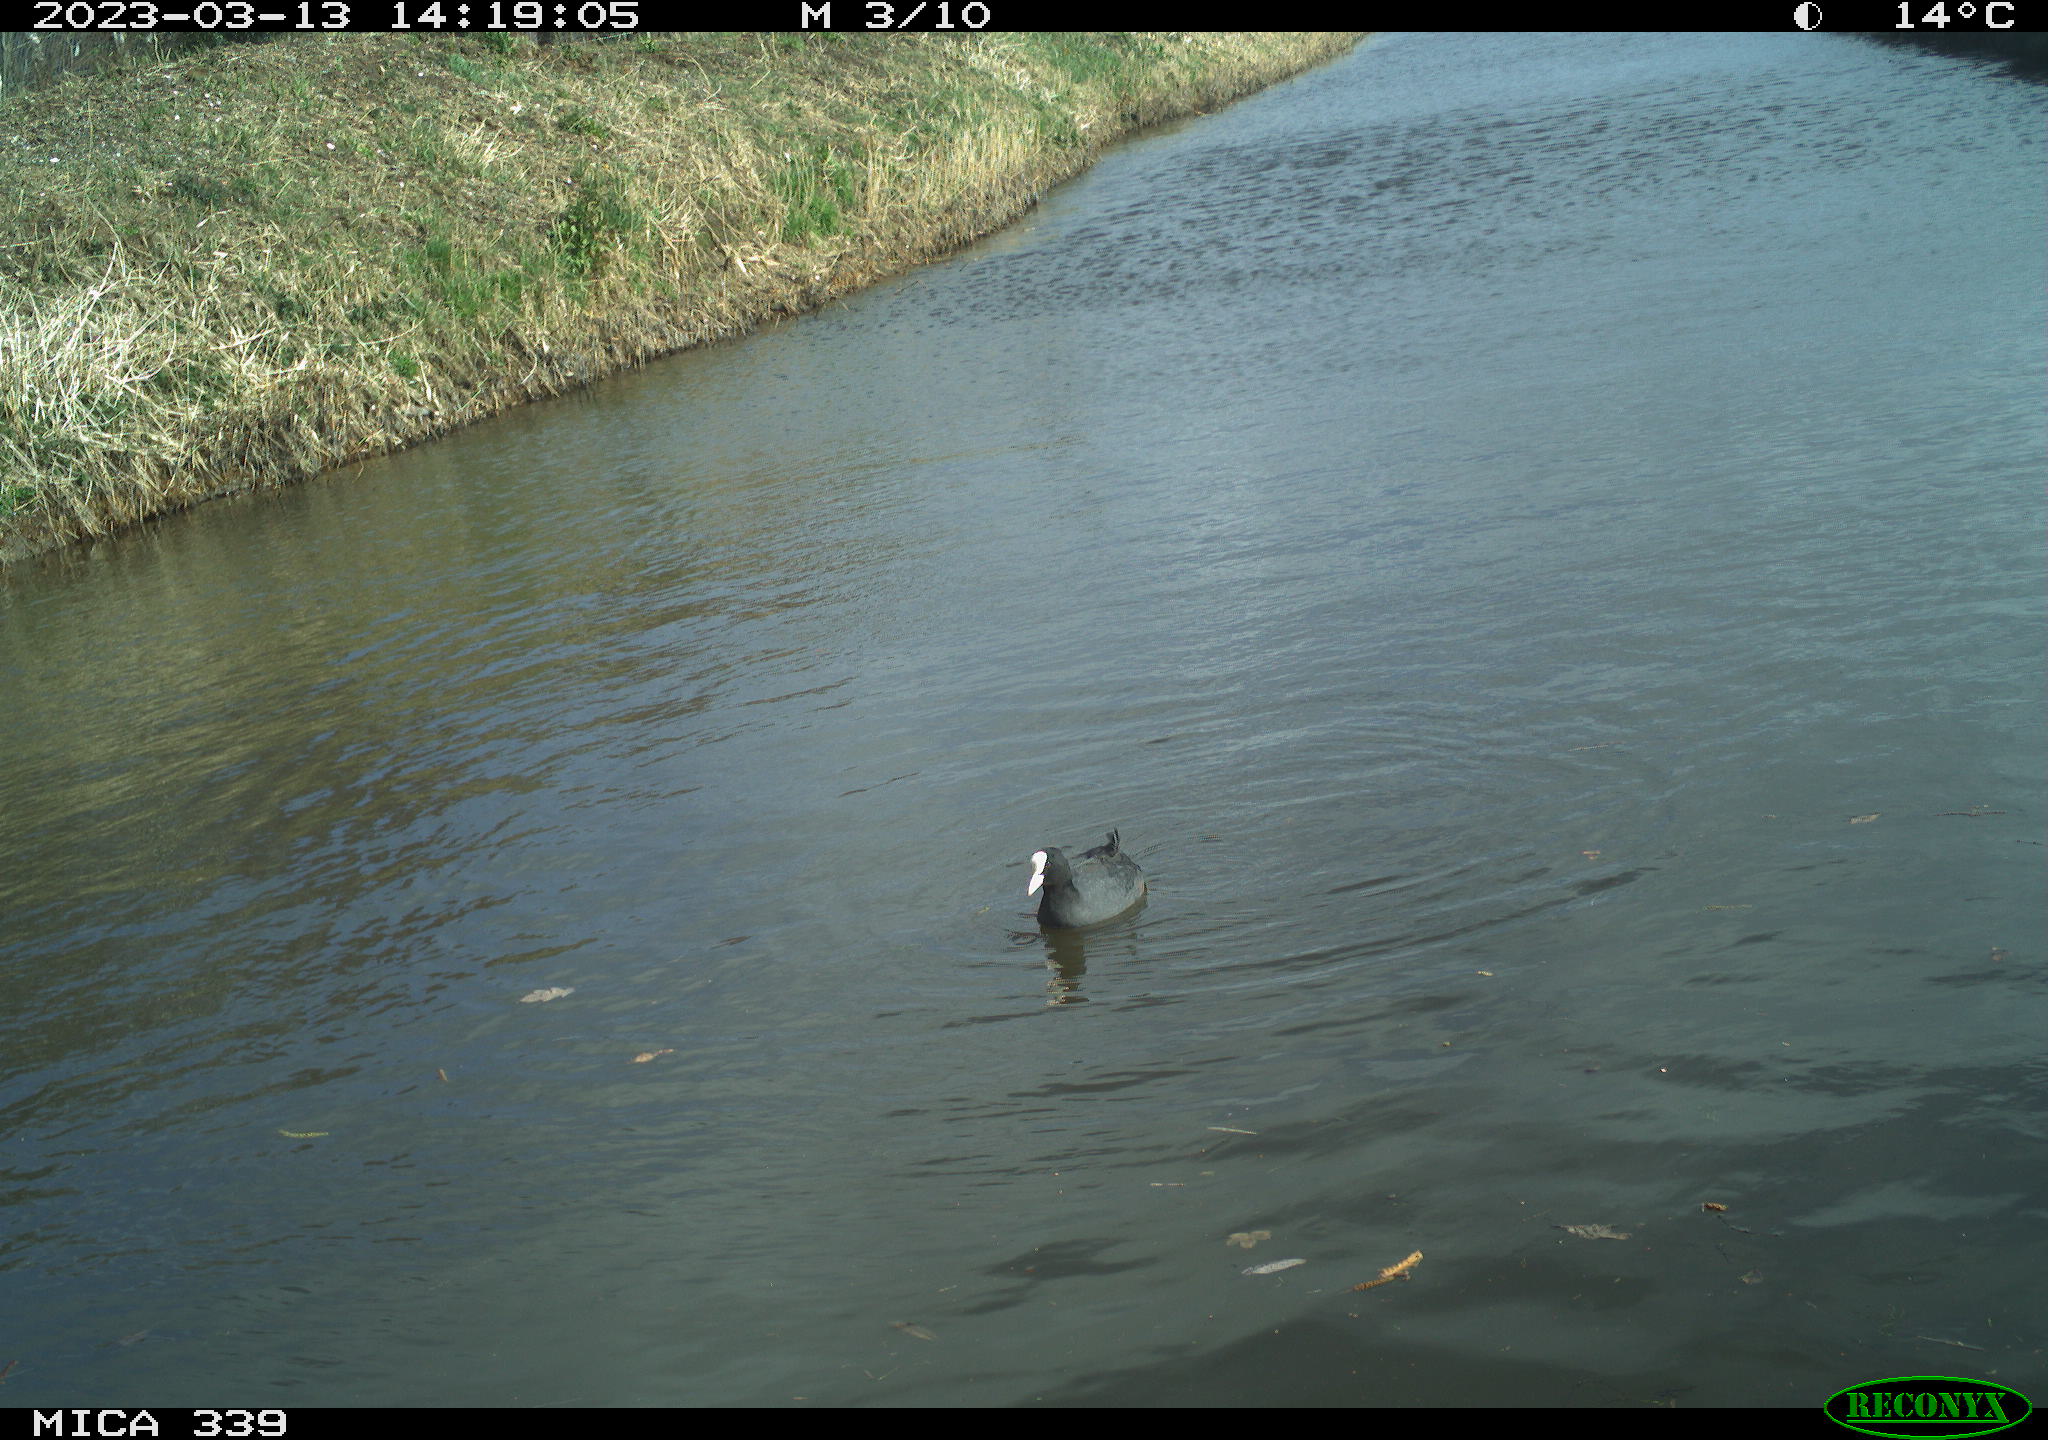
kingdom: Animalia
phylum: Chordata
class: Aves
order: Gruiformes
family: Rallidae
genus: Fulica
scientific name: Fulica atra
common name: Eurasian coot
